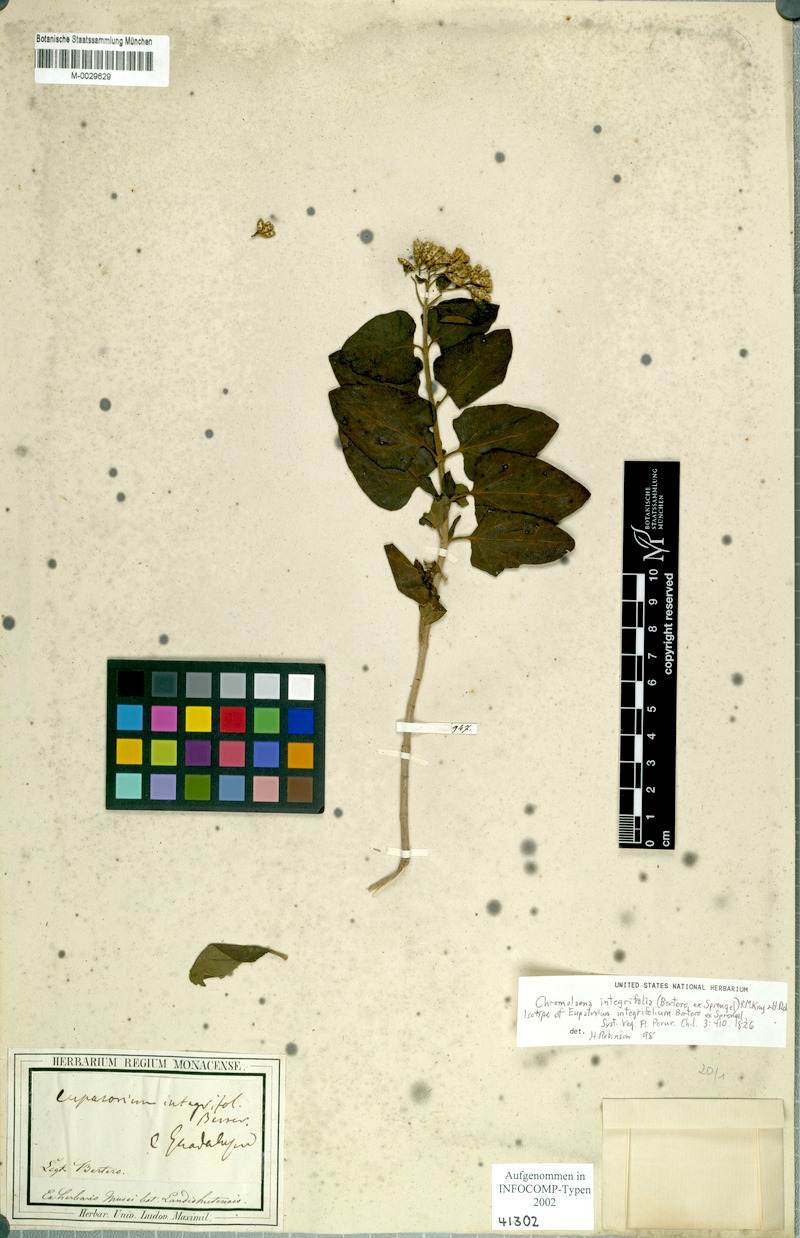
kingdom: Plantae
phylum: Tracheophyta
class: Magnoliopsida
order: Asterales
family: Asteraceae
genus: Chromolaena
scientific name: Chromolaena integrifolia
